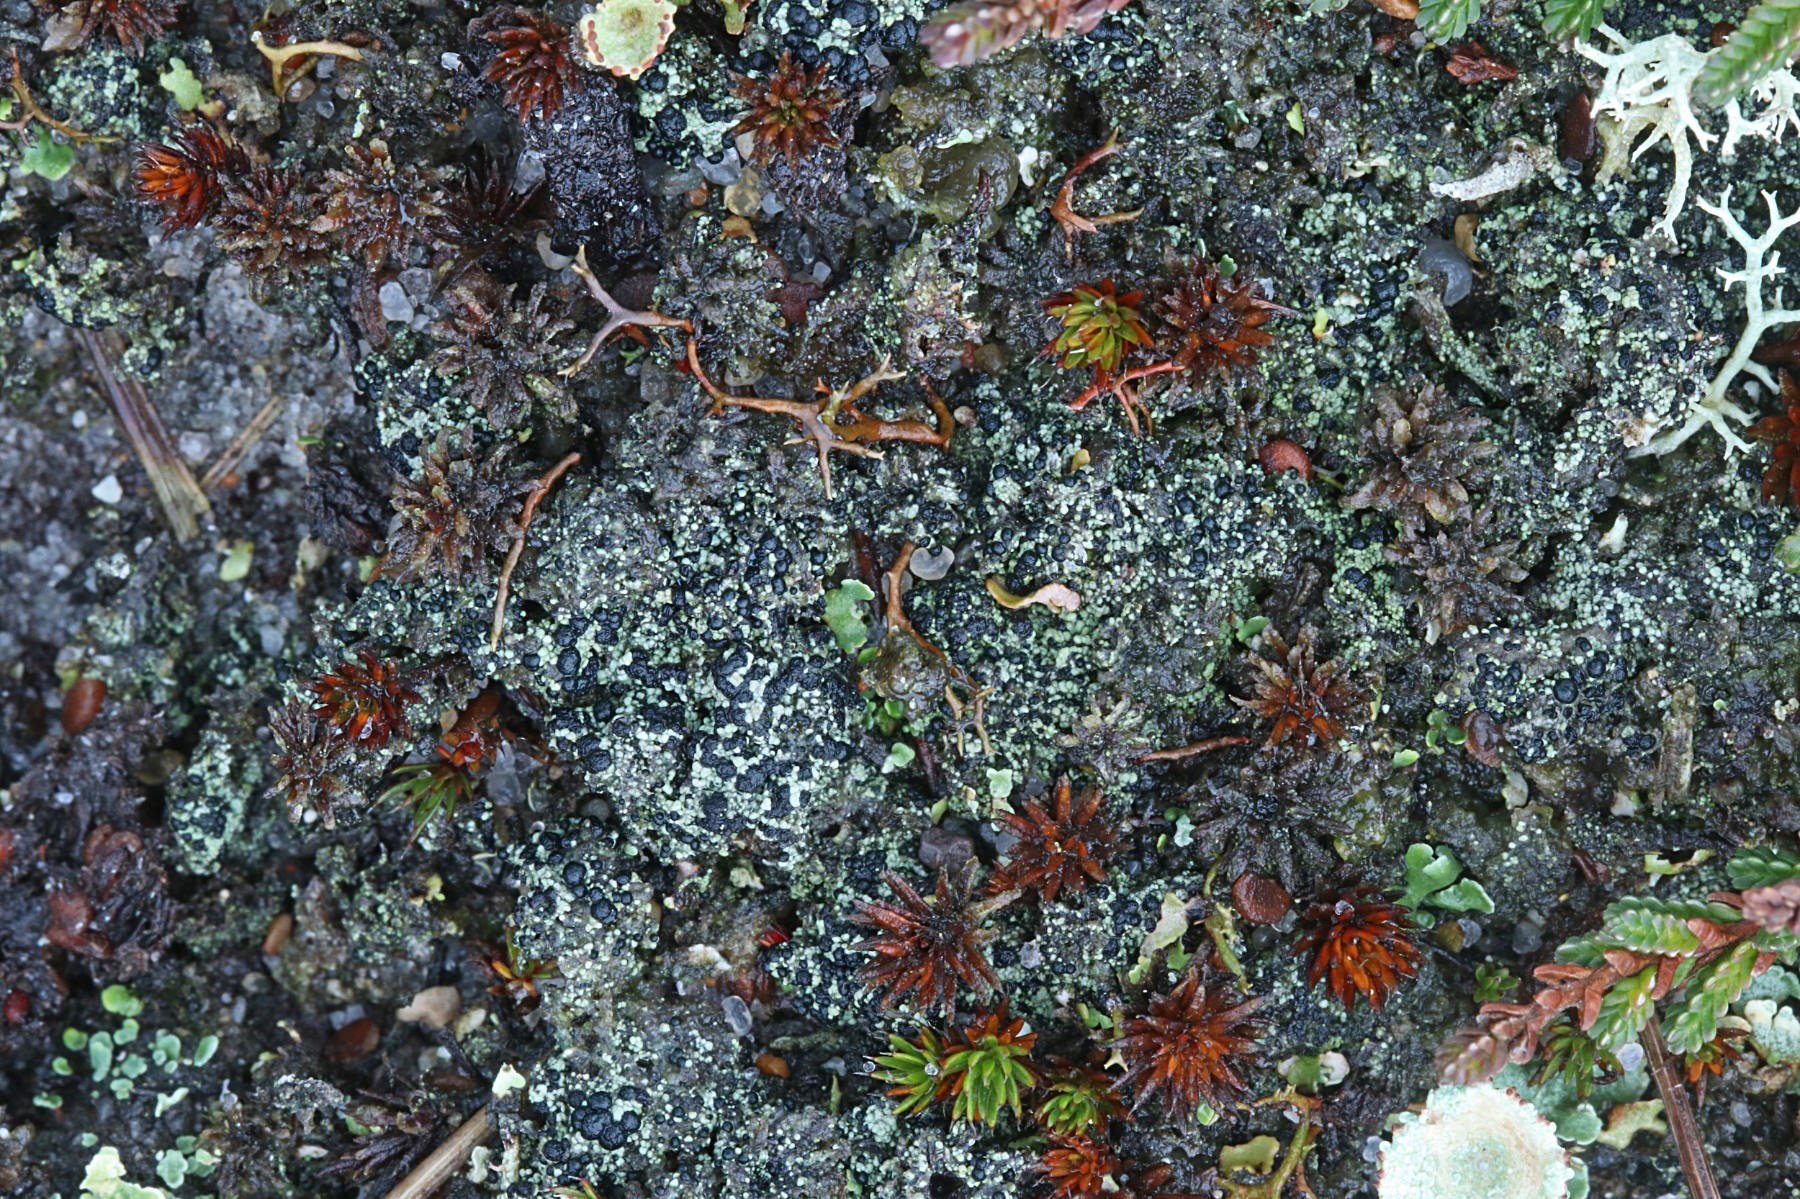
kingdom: Fungi
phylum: Ascomycota
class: Lecanoromycetes
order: Lecanorales
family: Byssolomataceae
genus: Micarea
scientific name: Micarea lignaria
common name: tørve-knaplav
